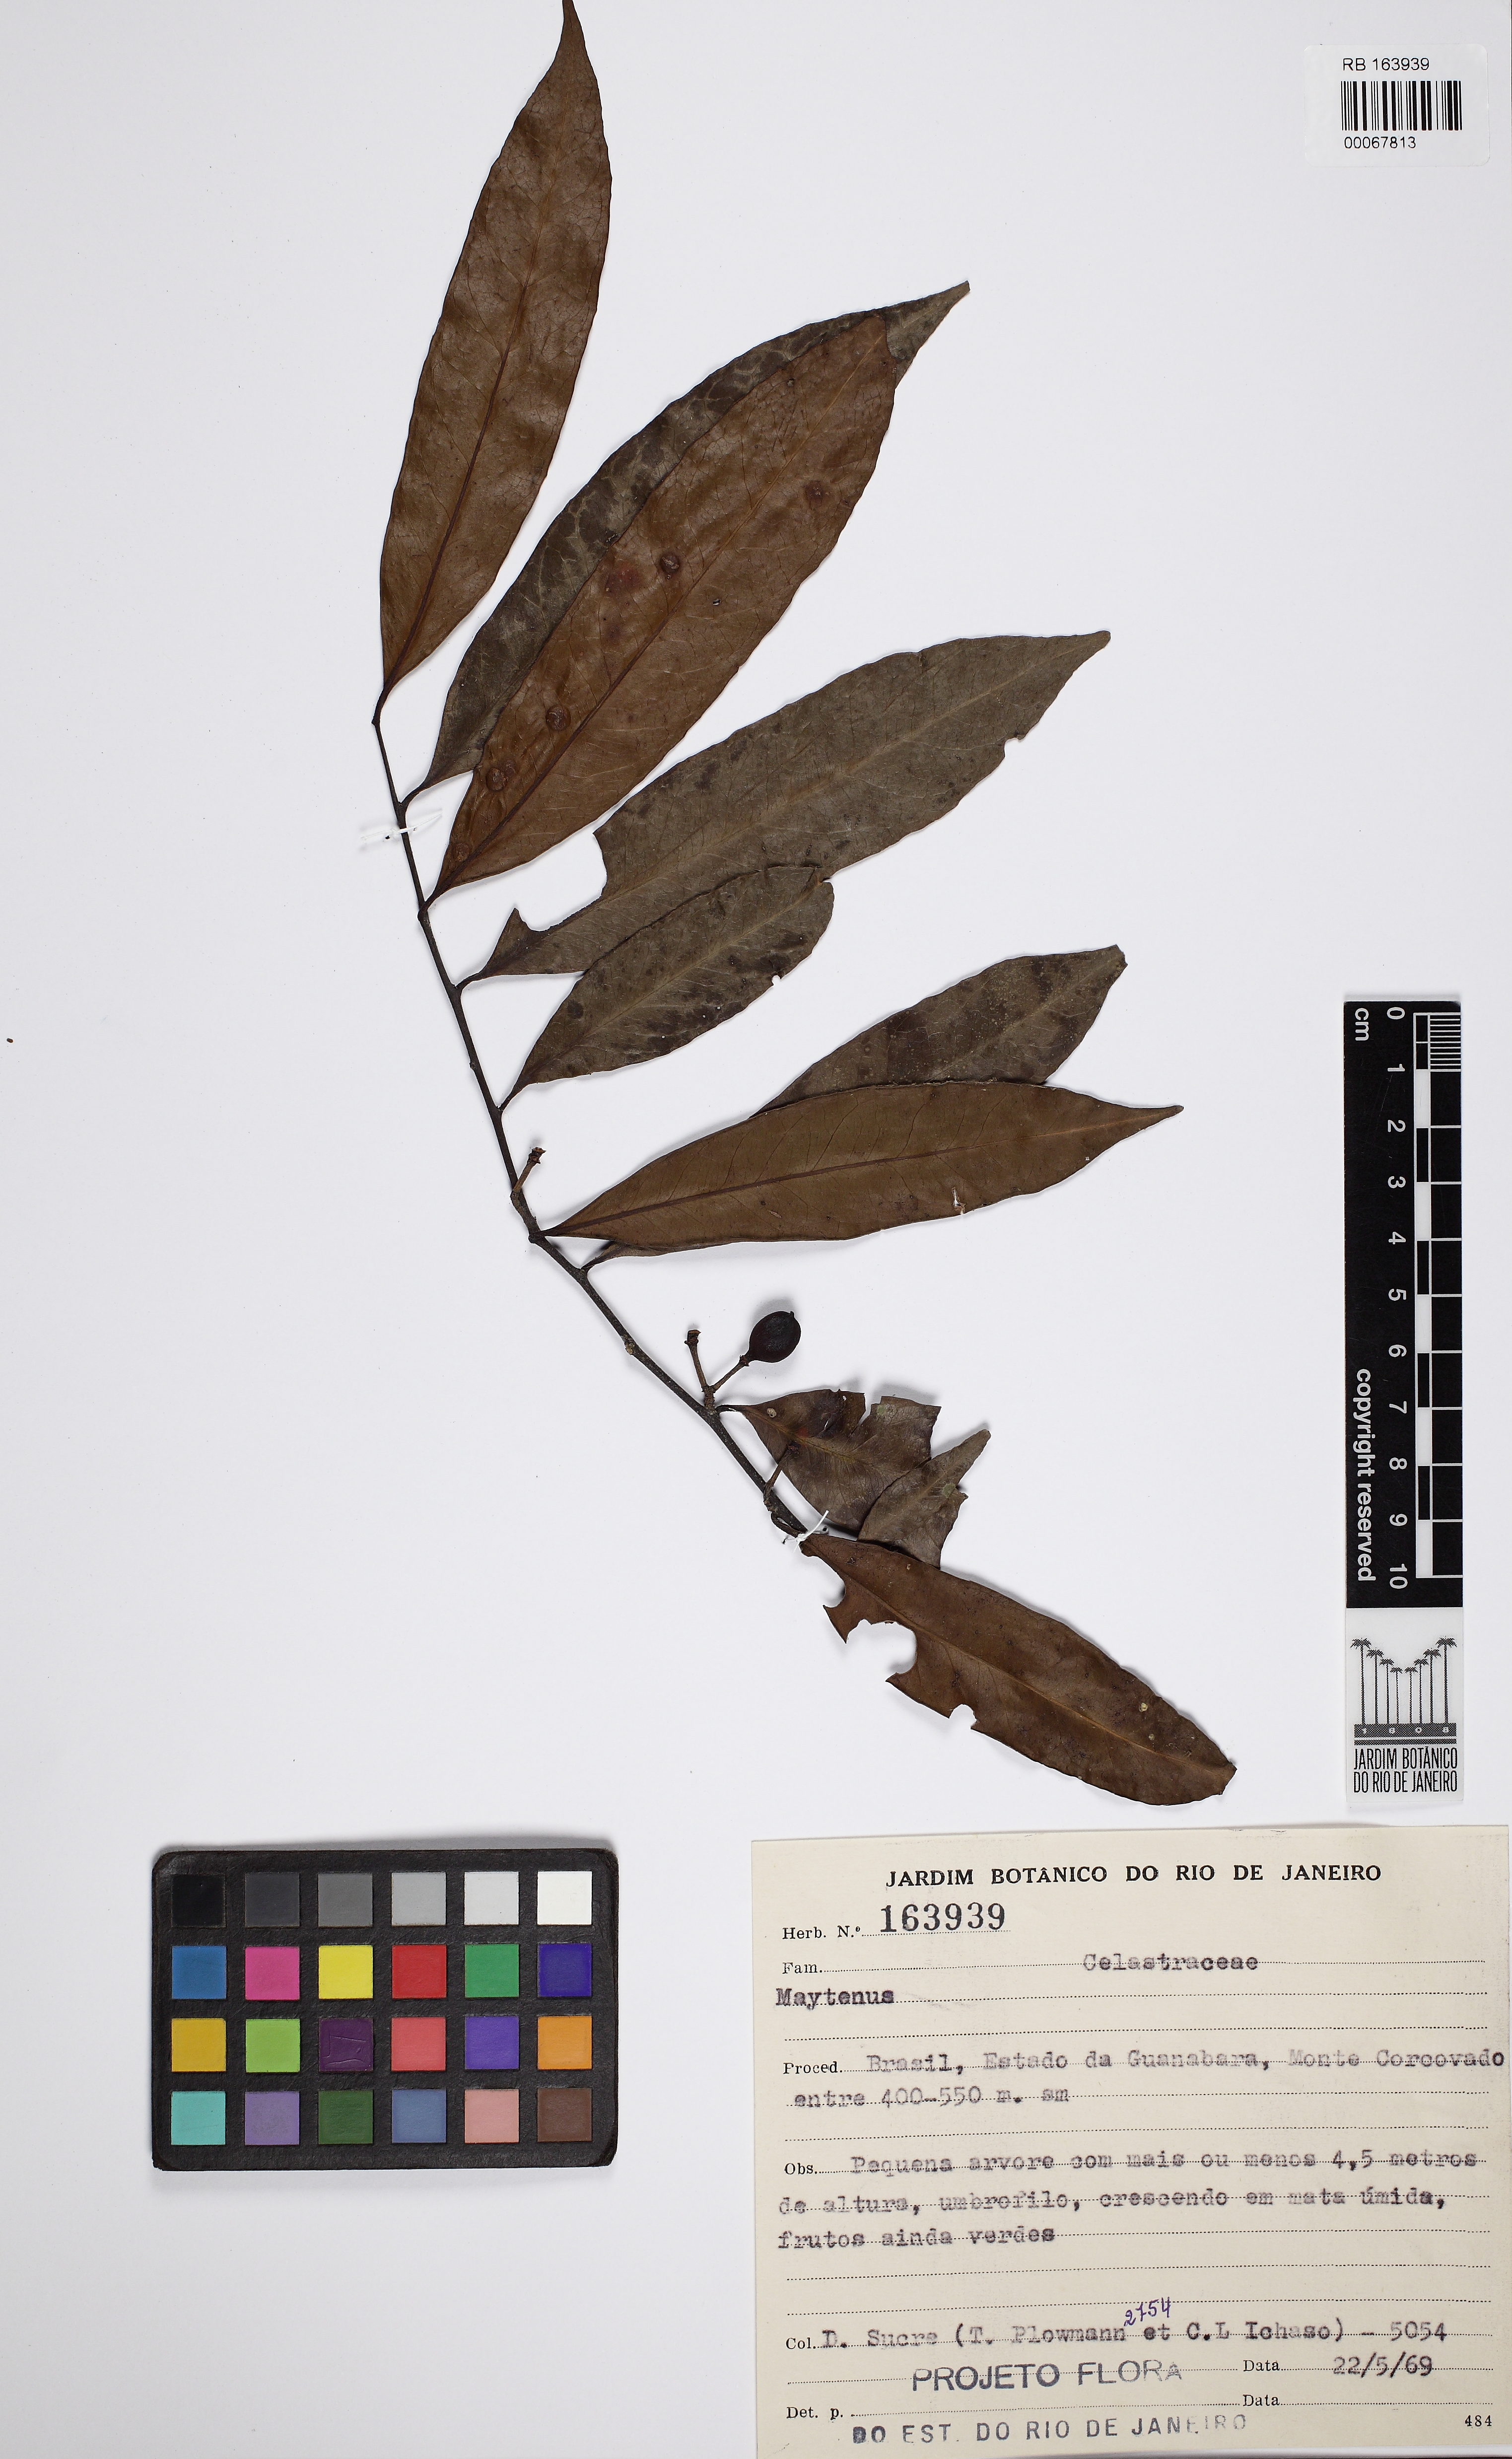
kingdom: Plantae
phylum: Tracheophyta
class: Magnoliopsida
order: Celastrales
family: Celastraceae
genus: Monteverdia
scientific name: Monteverdia communis
